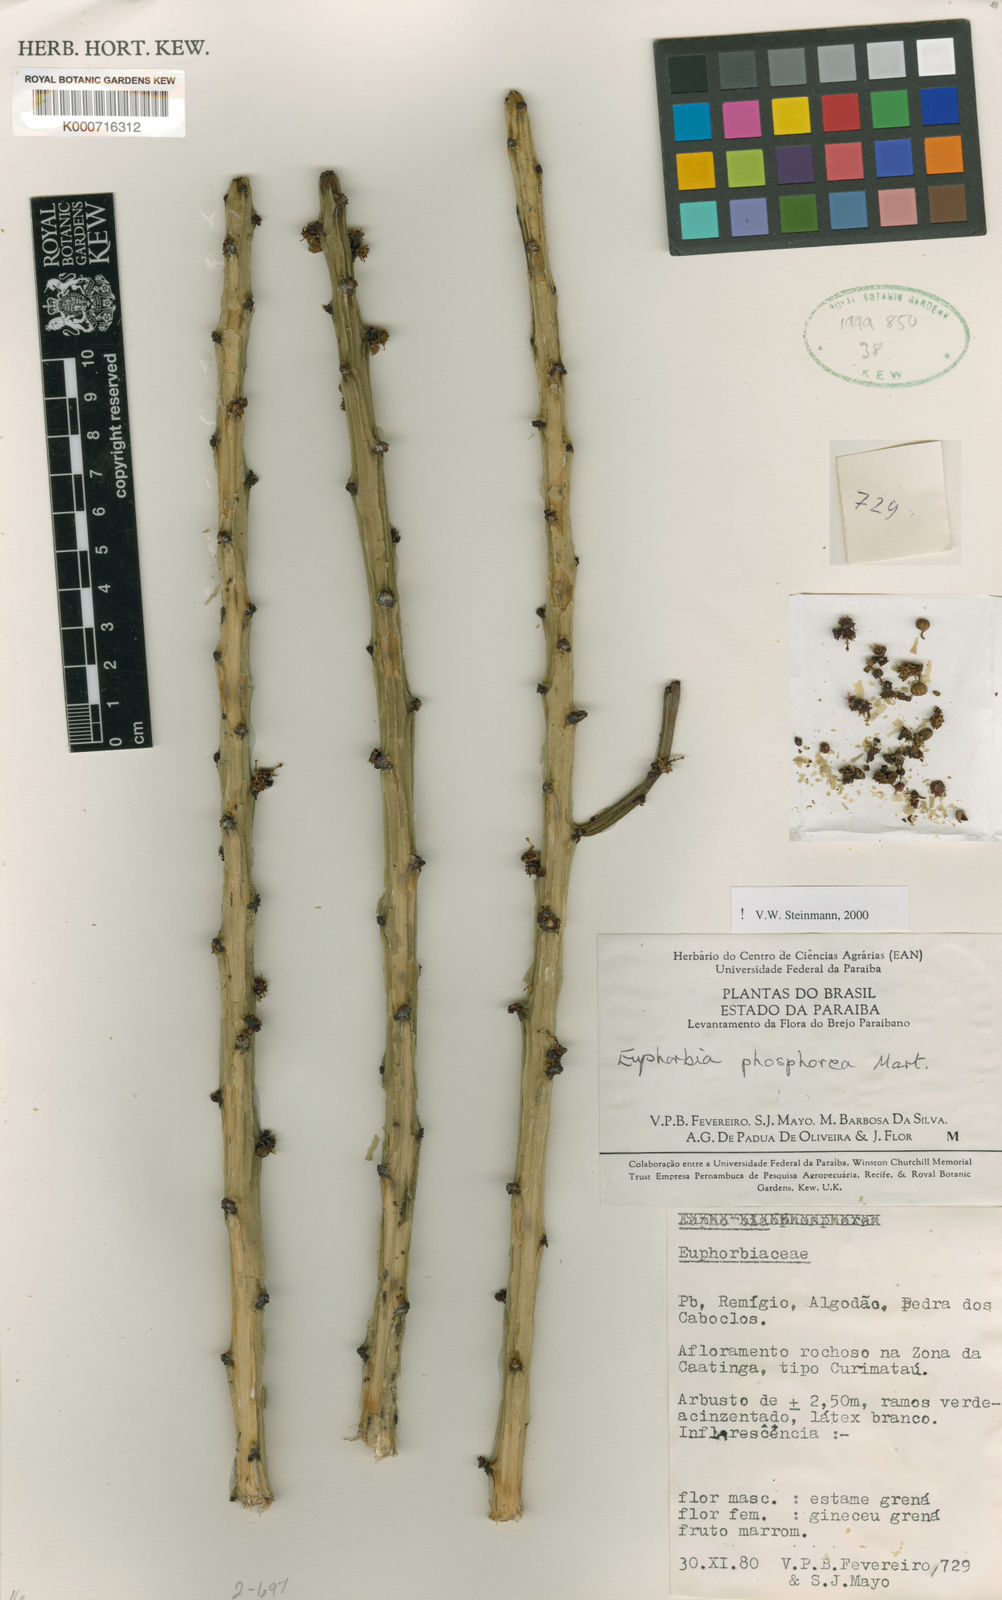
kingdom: Plantae
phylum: Tracheophyta
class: Magnoliopsida
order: Malpighiales
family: Euphorbiaceae
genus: Euphorbia
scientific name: Euphorbia phosphorea
